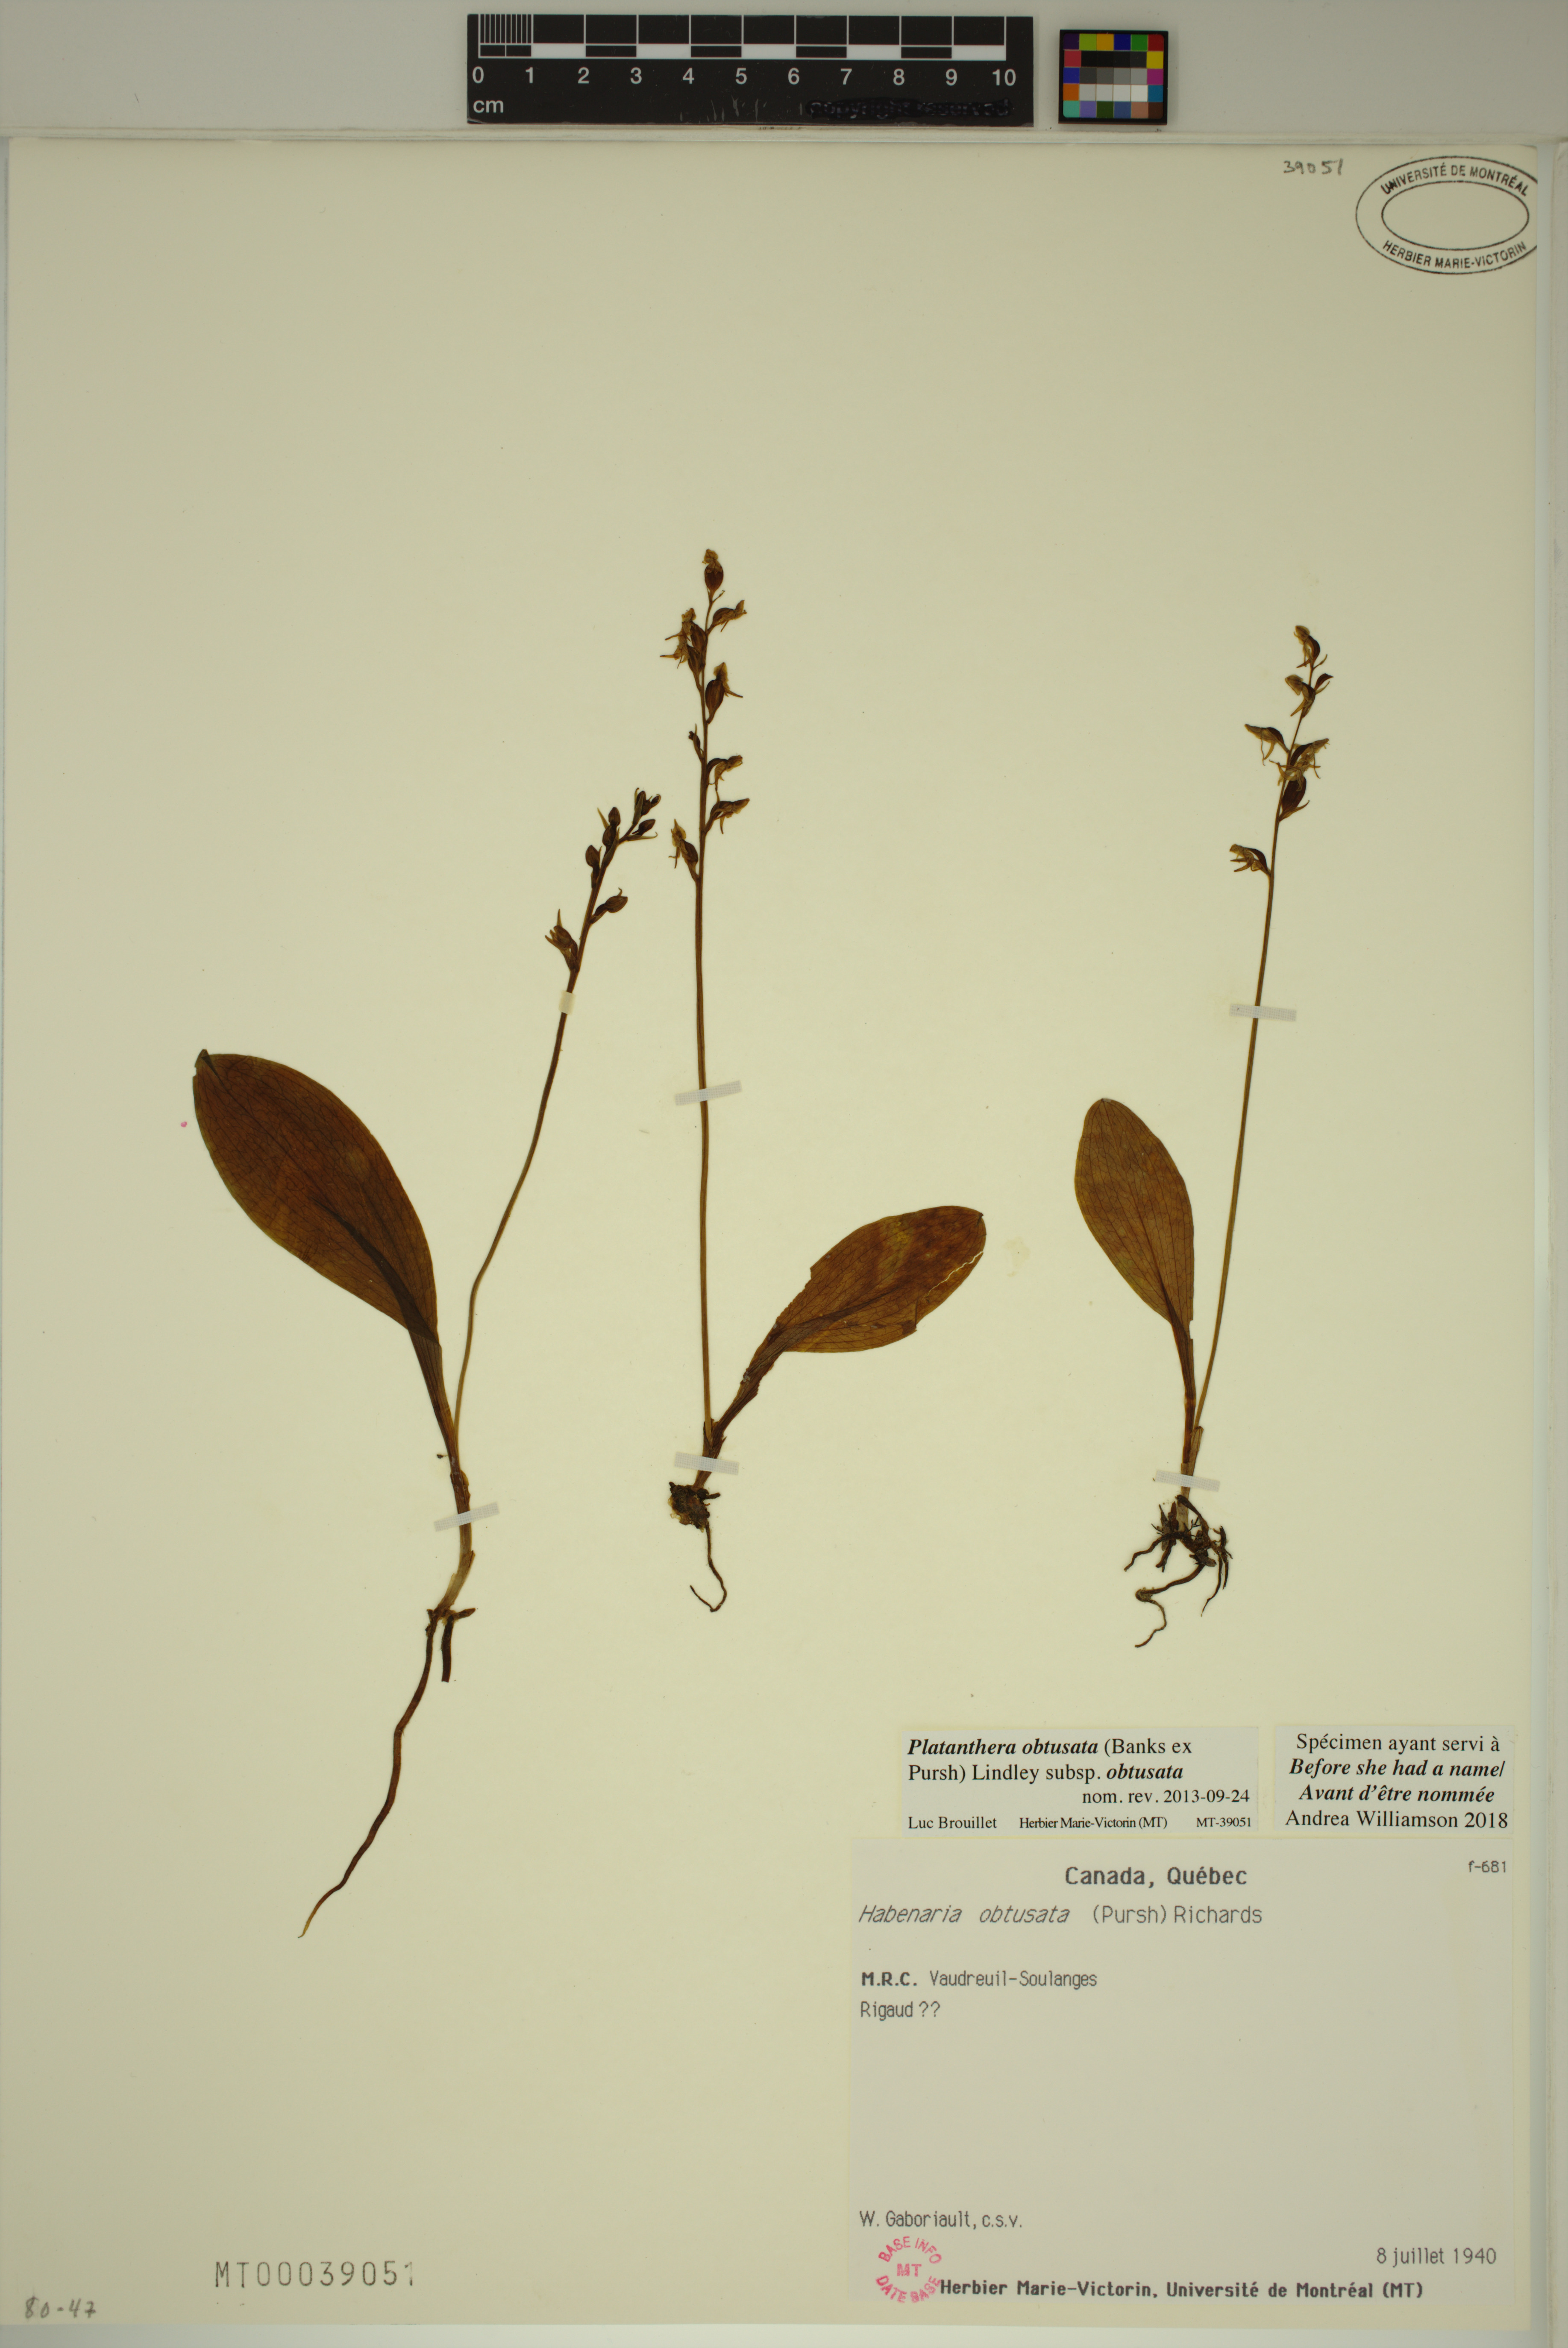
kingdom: Plantae
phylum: Tracheophyta
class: Liliopsida
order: Asparagales
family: Orchidaceae
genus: Platanthera
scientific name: Platanthera obtusata
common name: Blunt bog orchid
